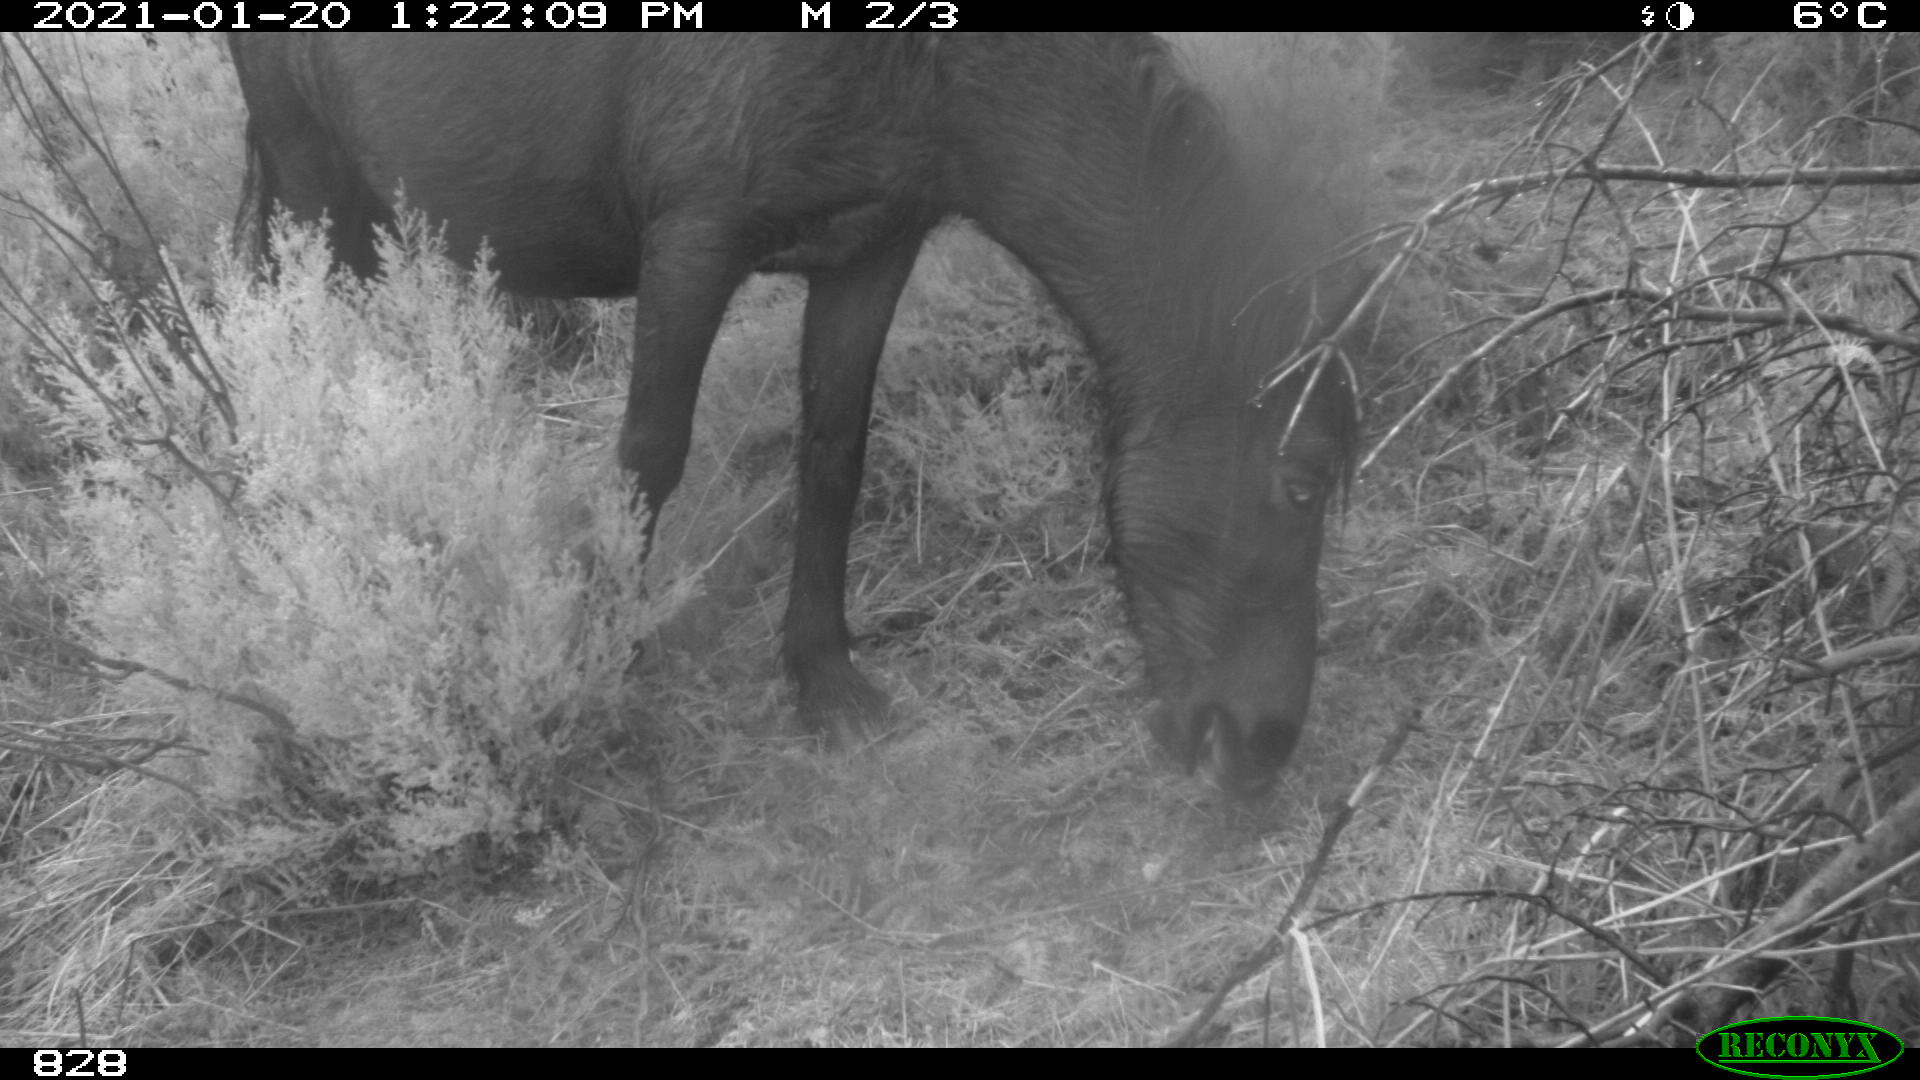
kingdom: Animalia
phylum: Chordata
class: Mammalia
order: Perissodactyla
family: Equidae
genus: Equus
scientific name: Equus caballus
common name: Horse
